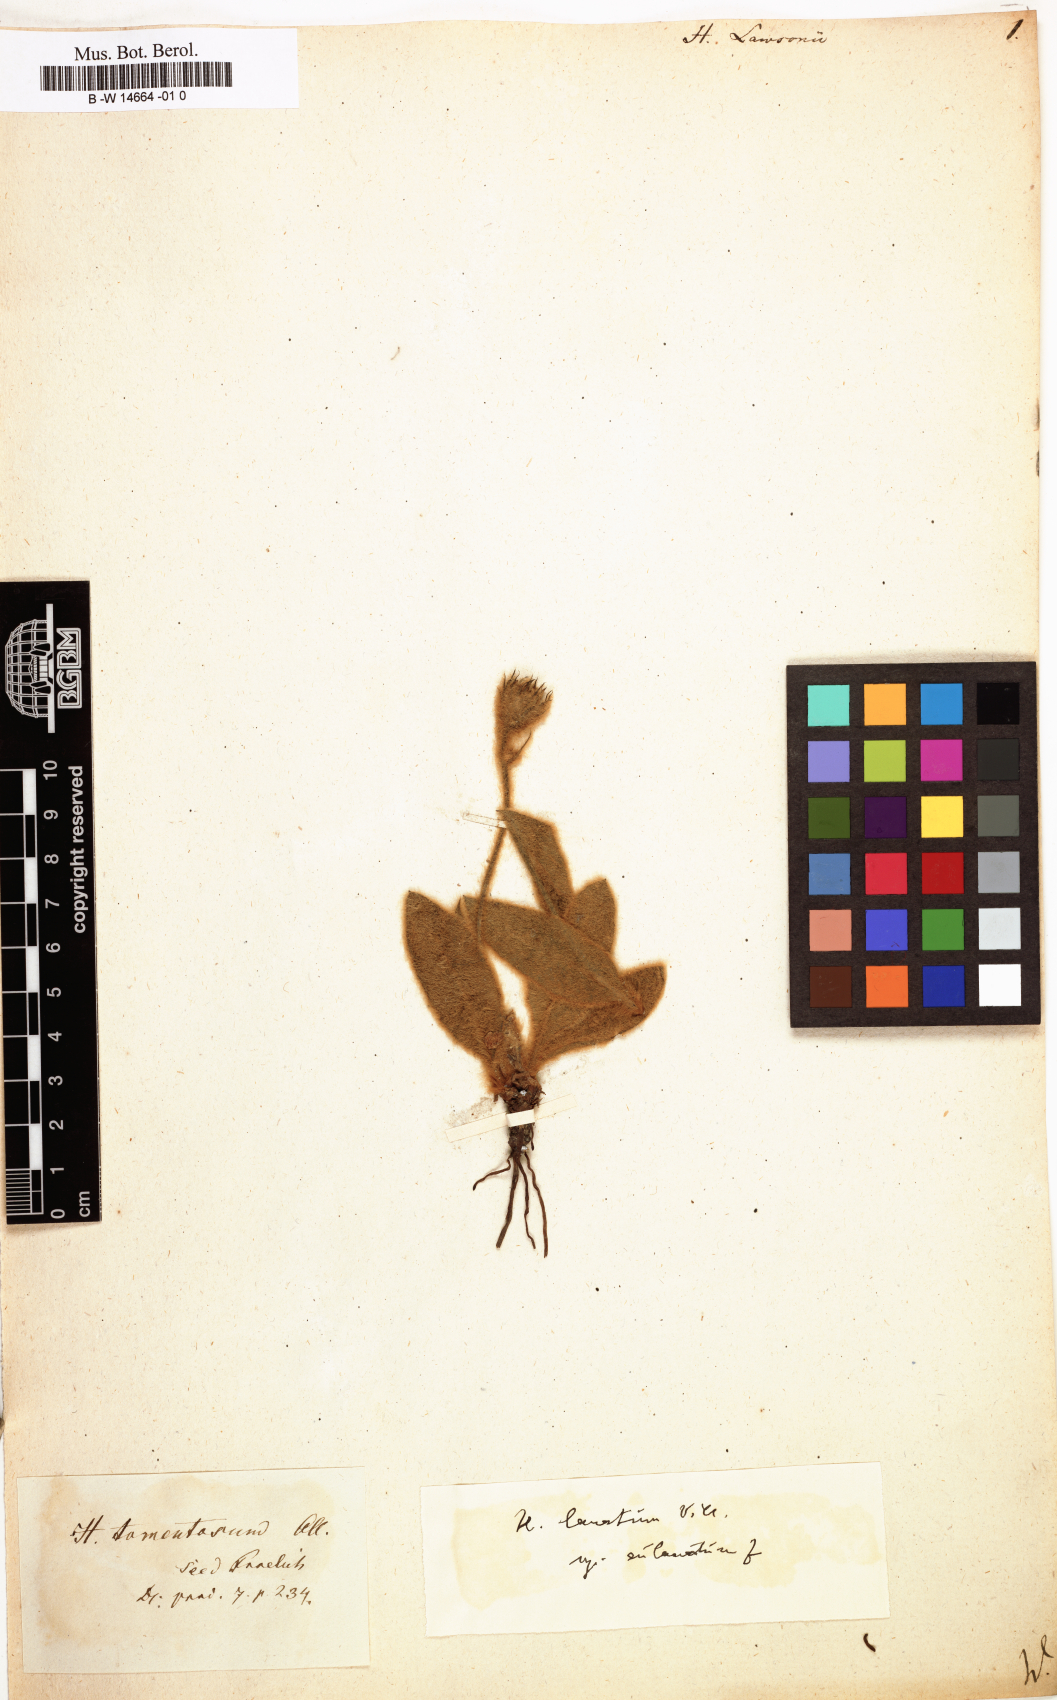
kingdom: Plantae
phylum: Tracheophyta
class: Magnoliopsida
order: Asterales
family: Asteraceae
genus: Hieracium
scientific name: Hieracium lawsonii
